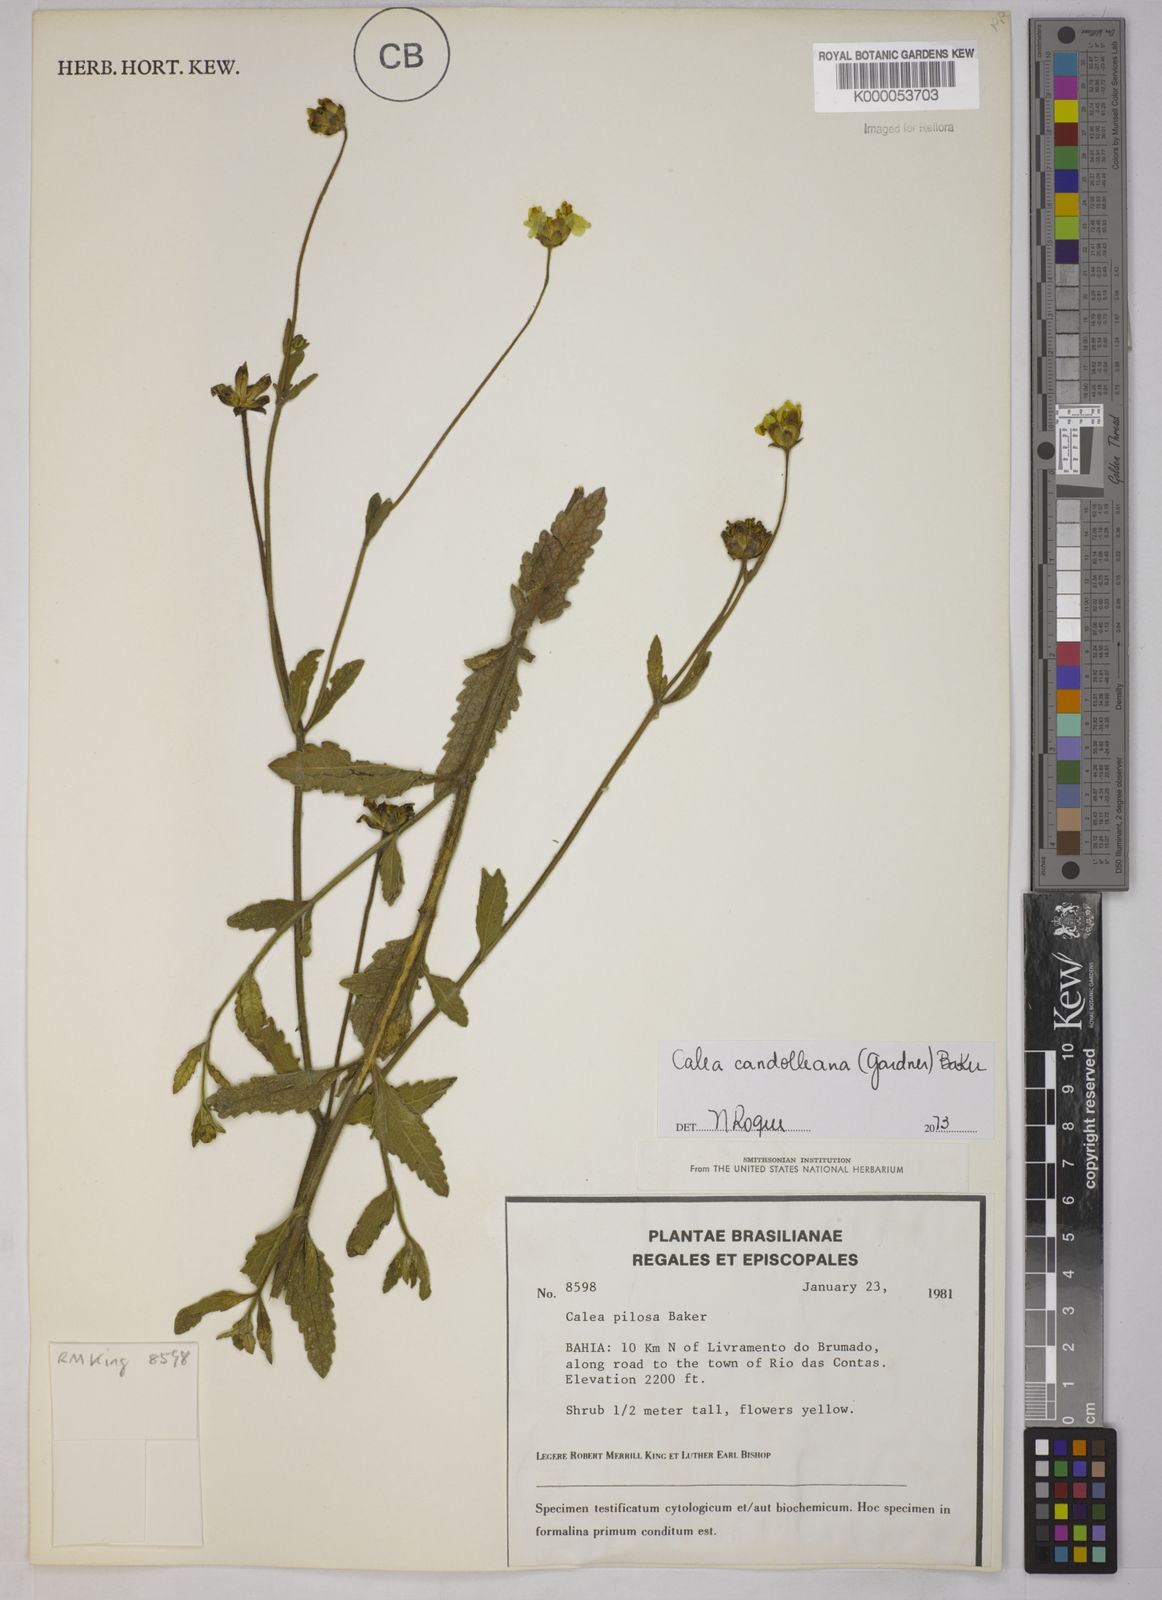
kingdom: Plantae
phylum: Tracheophyta
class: Magnoliopsida
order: Asterales
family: Asteraceae
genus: Calea
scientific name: Calea pilosa
